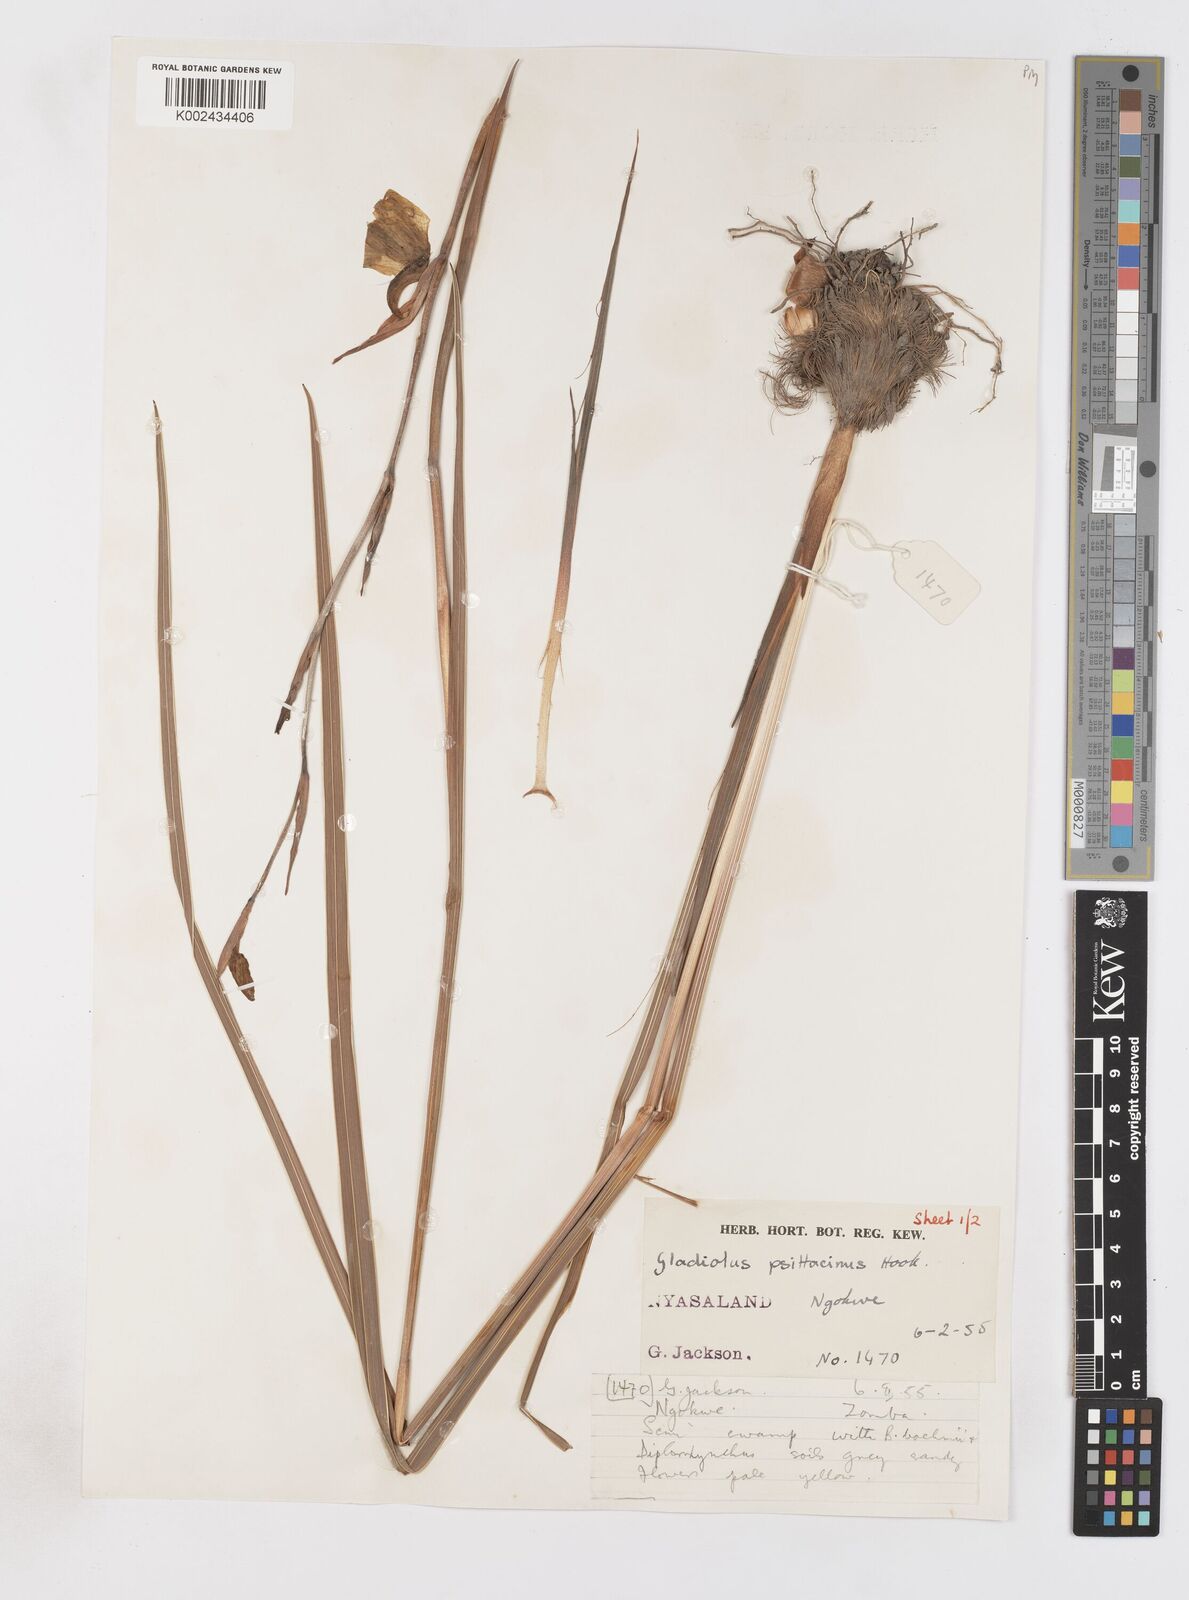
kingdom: Plantae
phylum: Tracheophyta
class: Liliopsida
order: Asparagales
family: Iridaceae
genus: Gladiolus
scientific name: Gladiolus dalenii
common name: Cornflag
